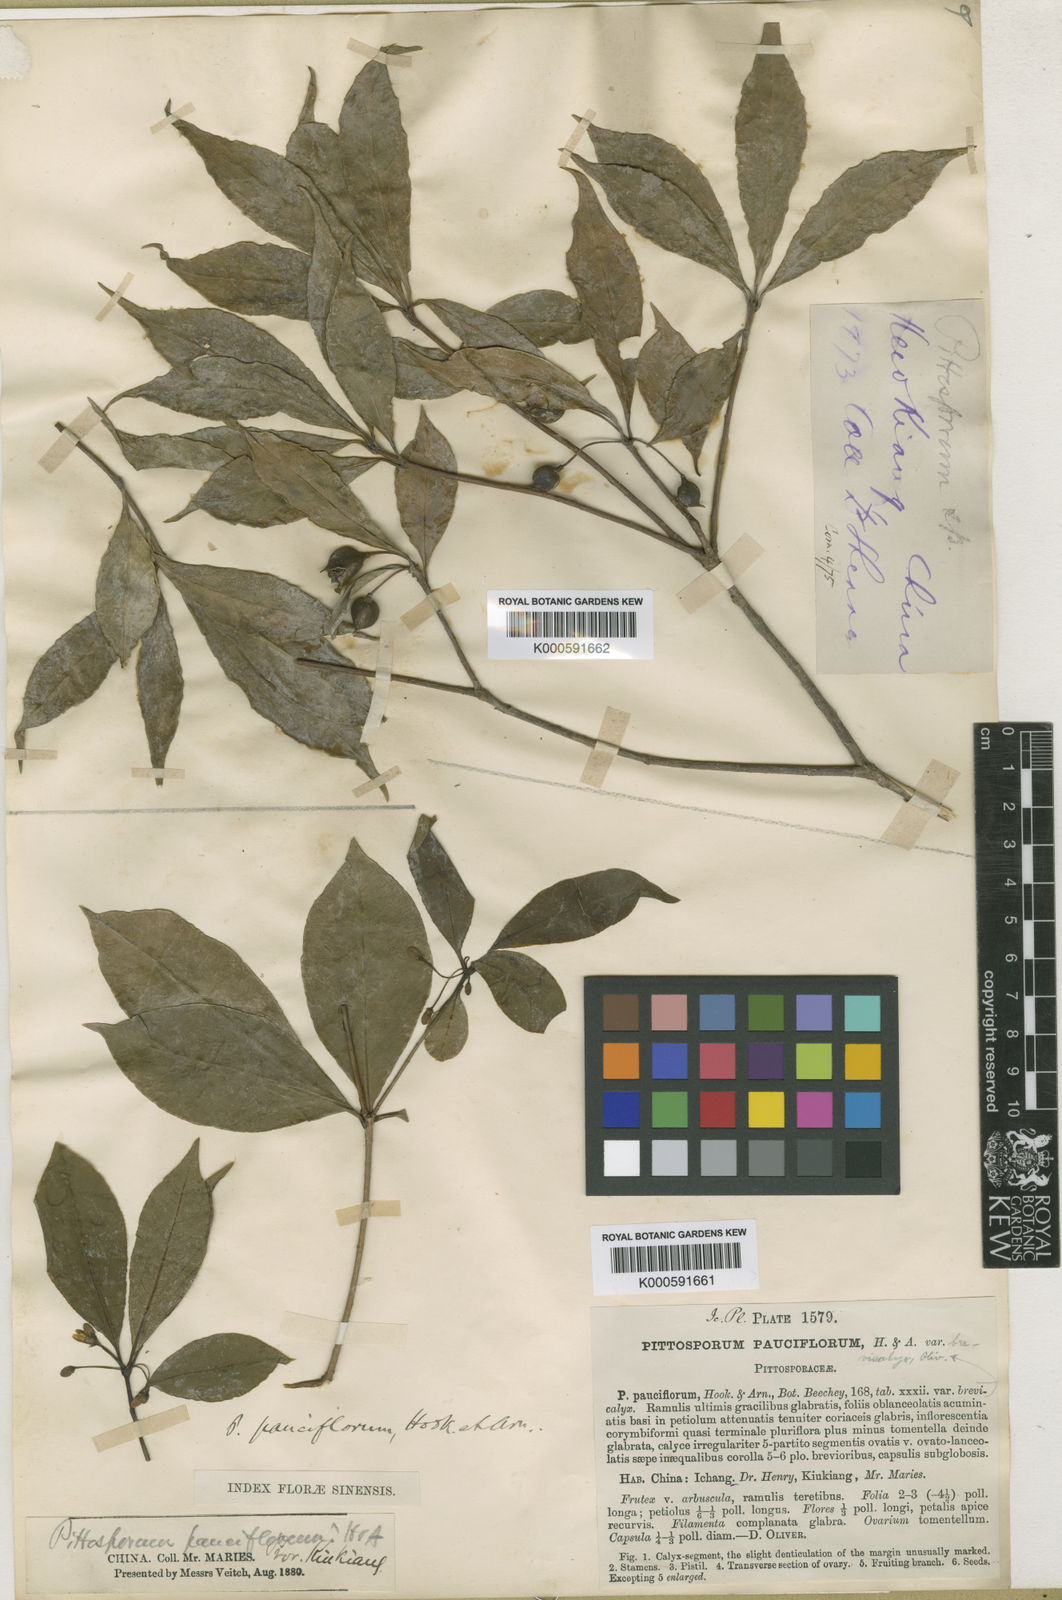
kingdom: Plantae
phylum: Tracheophyta
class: Magnoliopsida
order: Apiales
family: Pittosporaceae
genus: Pittosporum
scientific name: Pittosporum brevicalyx
